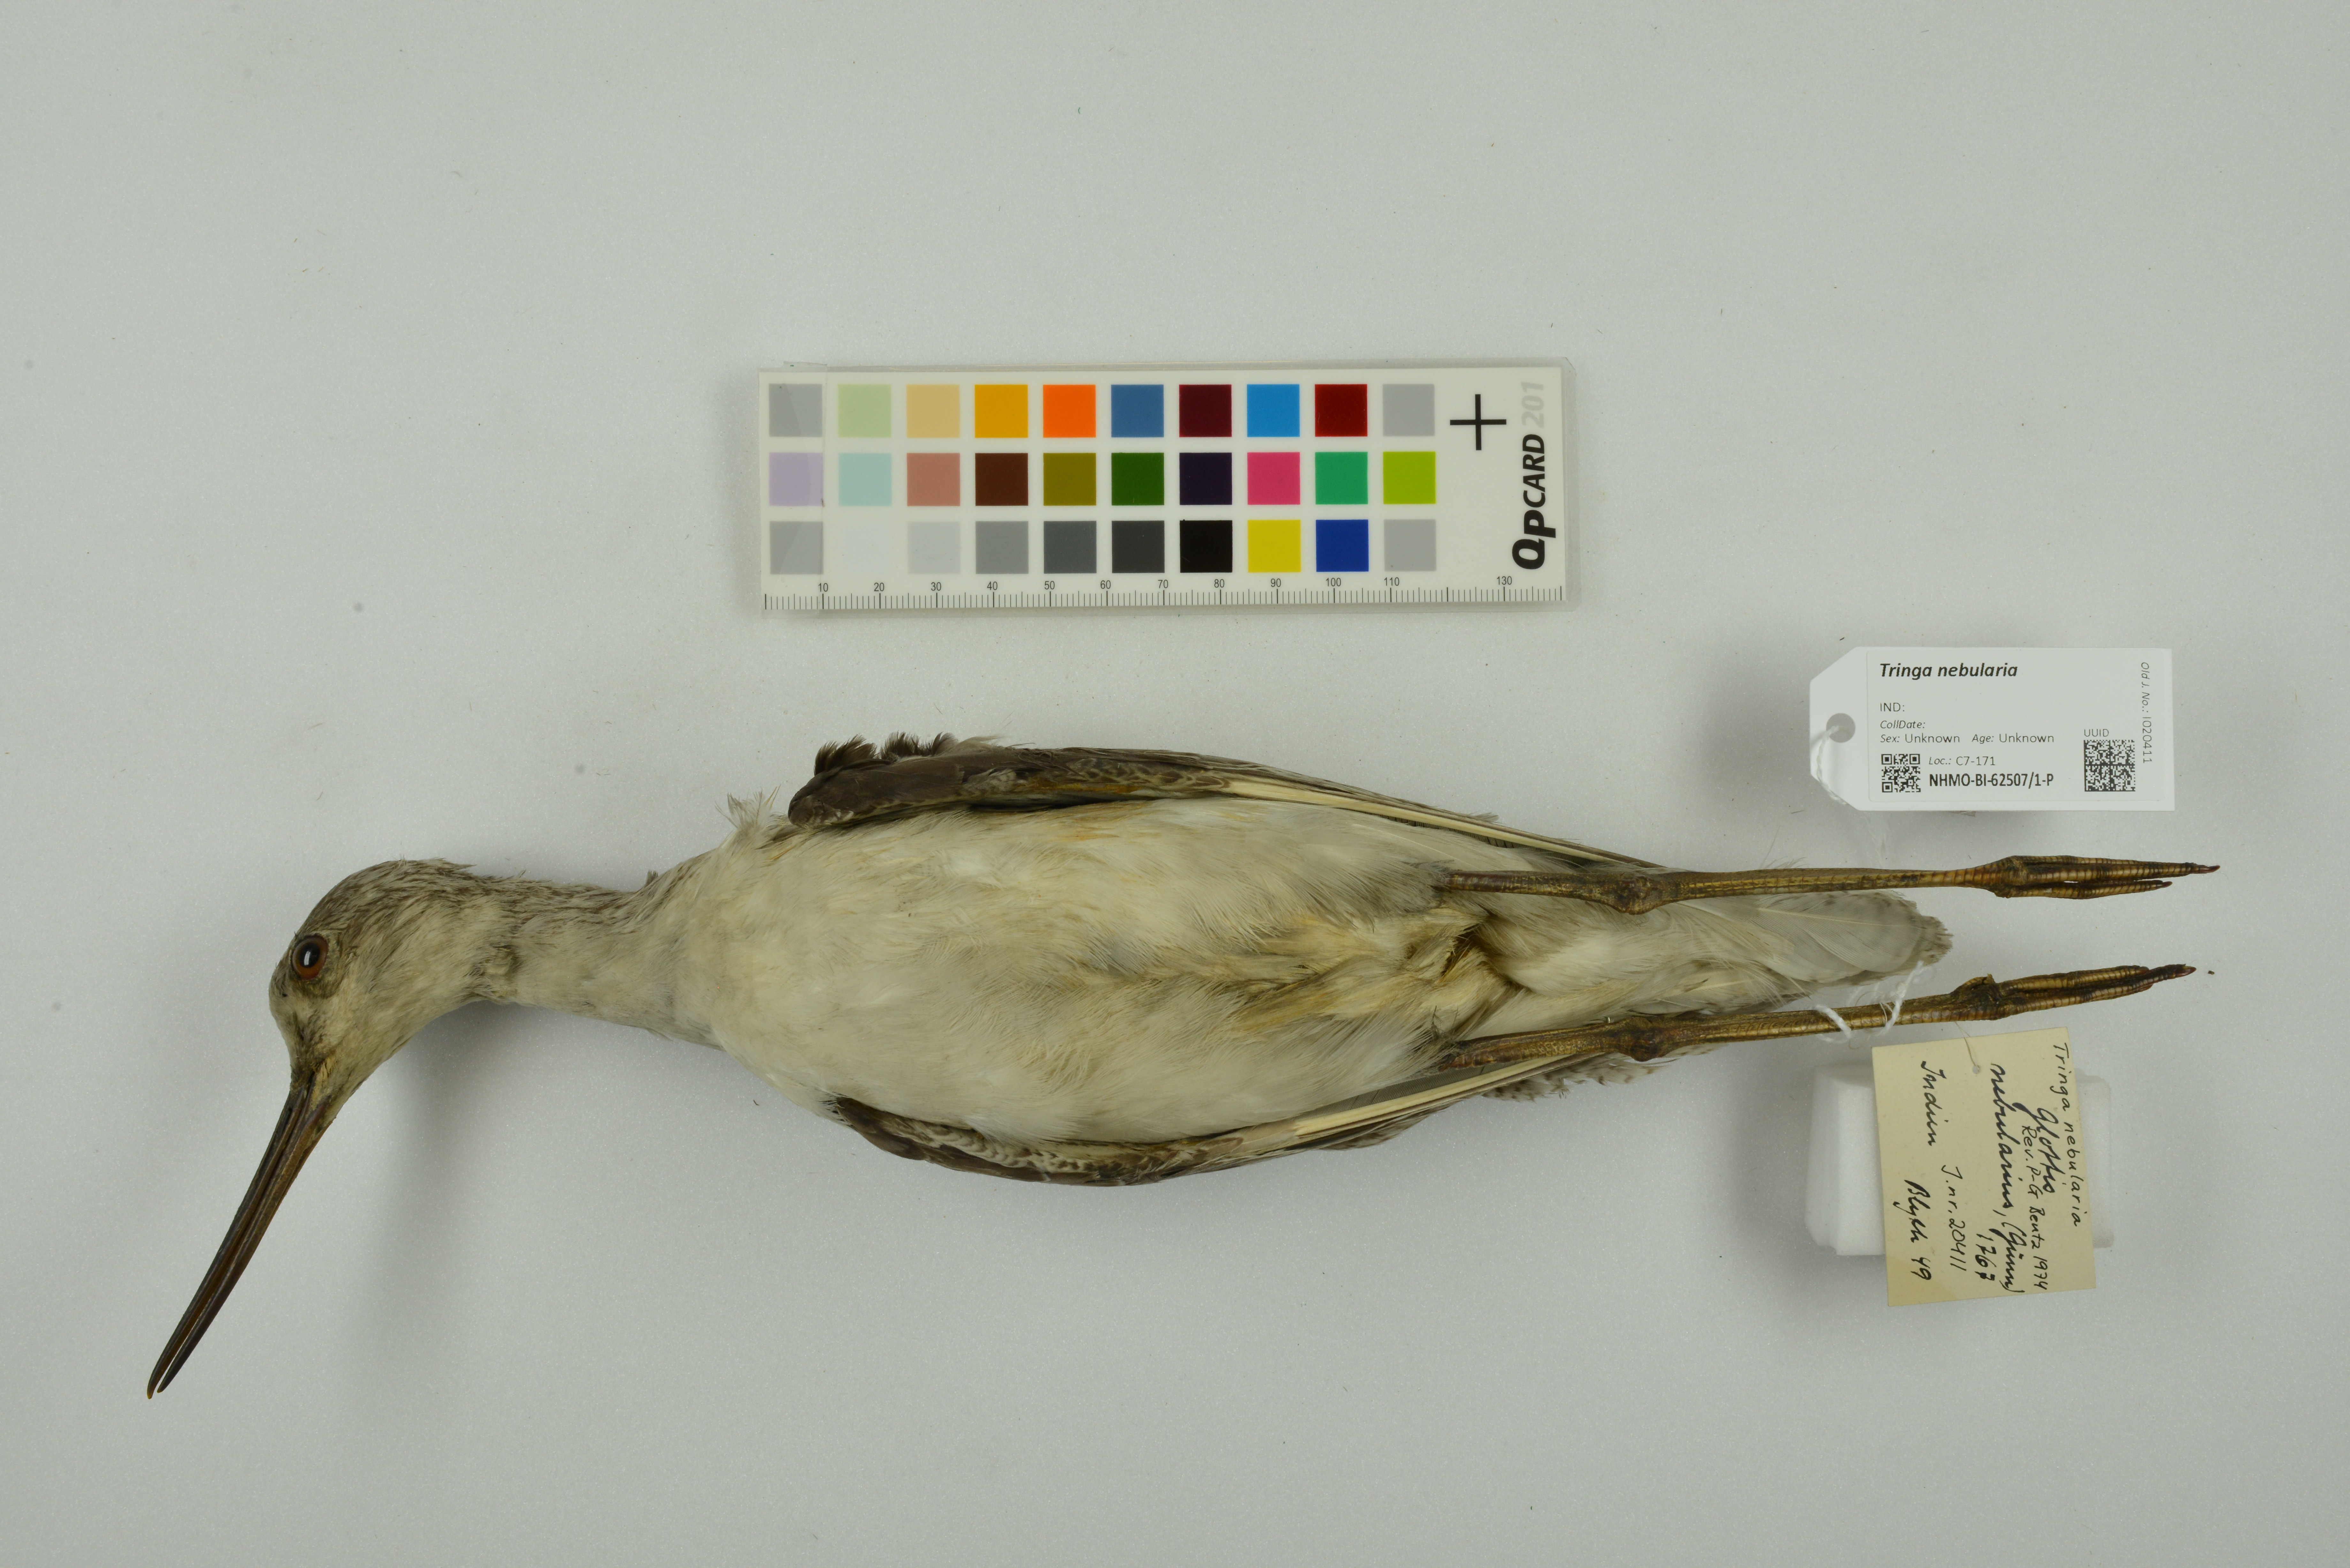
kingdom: Animalia
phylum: Chordata
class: Aves
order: Charadriiformes
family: Scolopacidae
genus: Tringa
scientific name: Tringa nebularia
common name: Common greenshank
